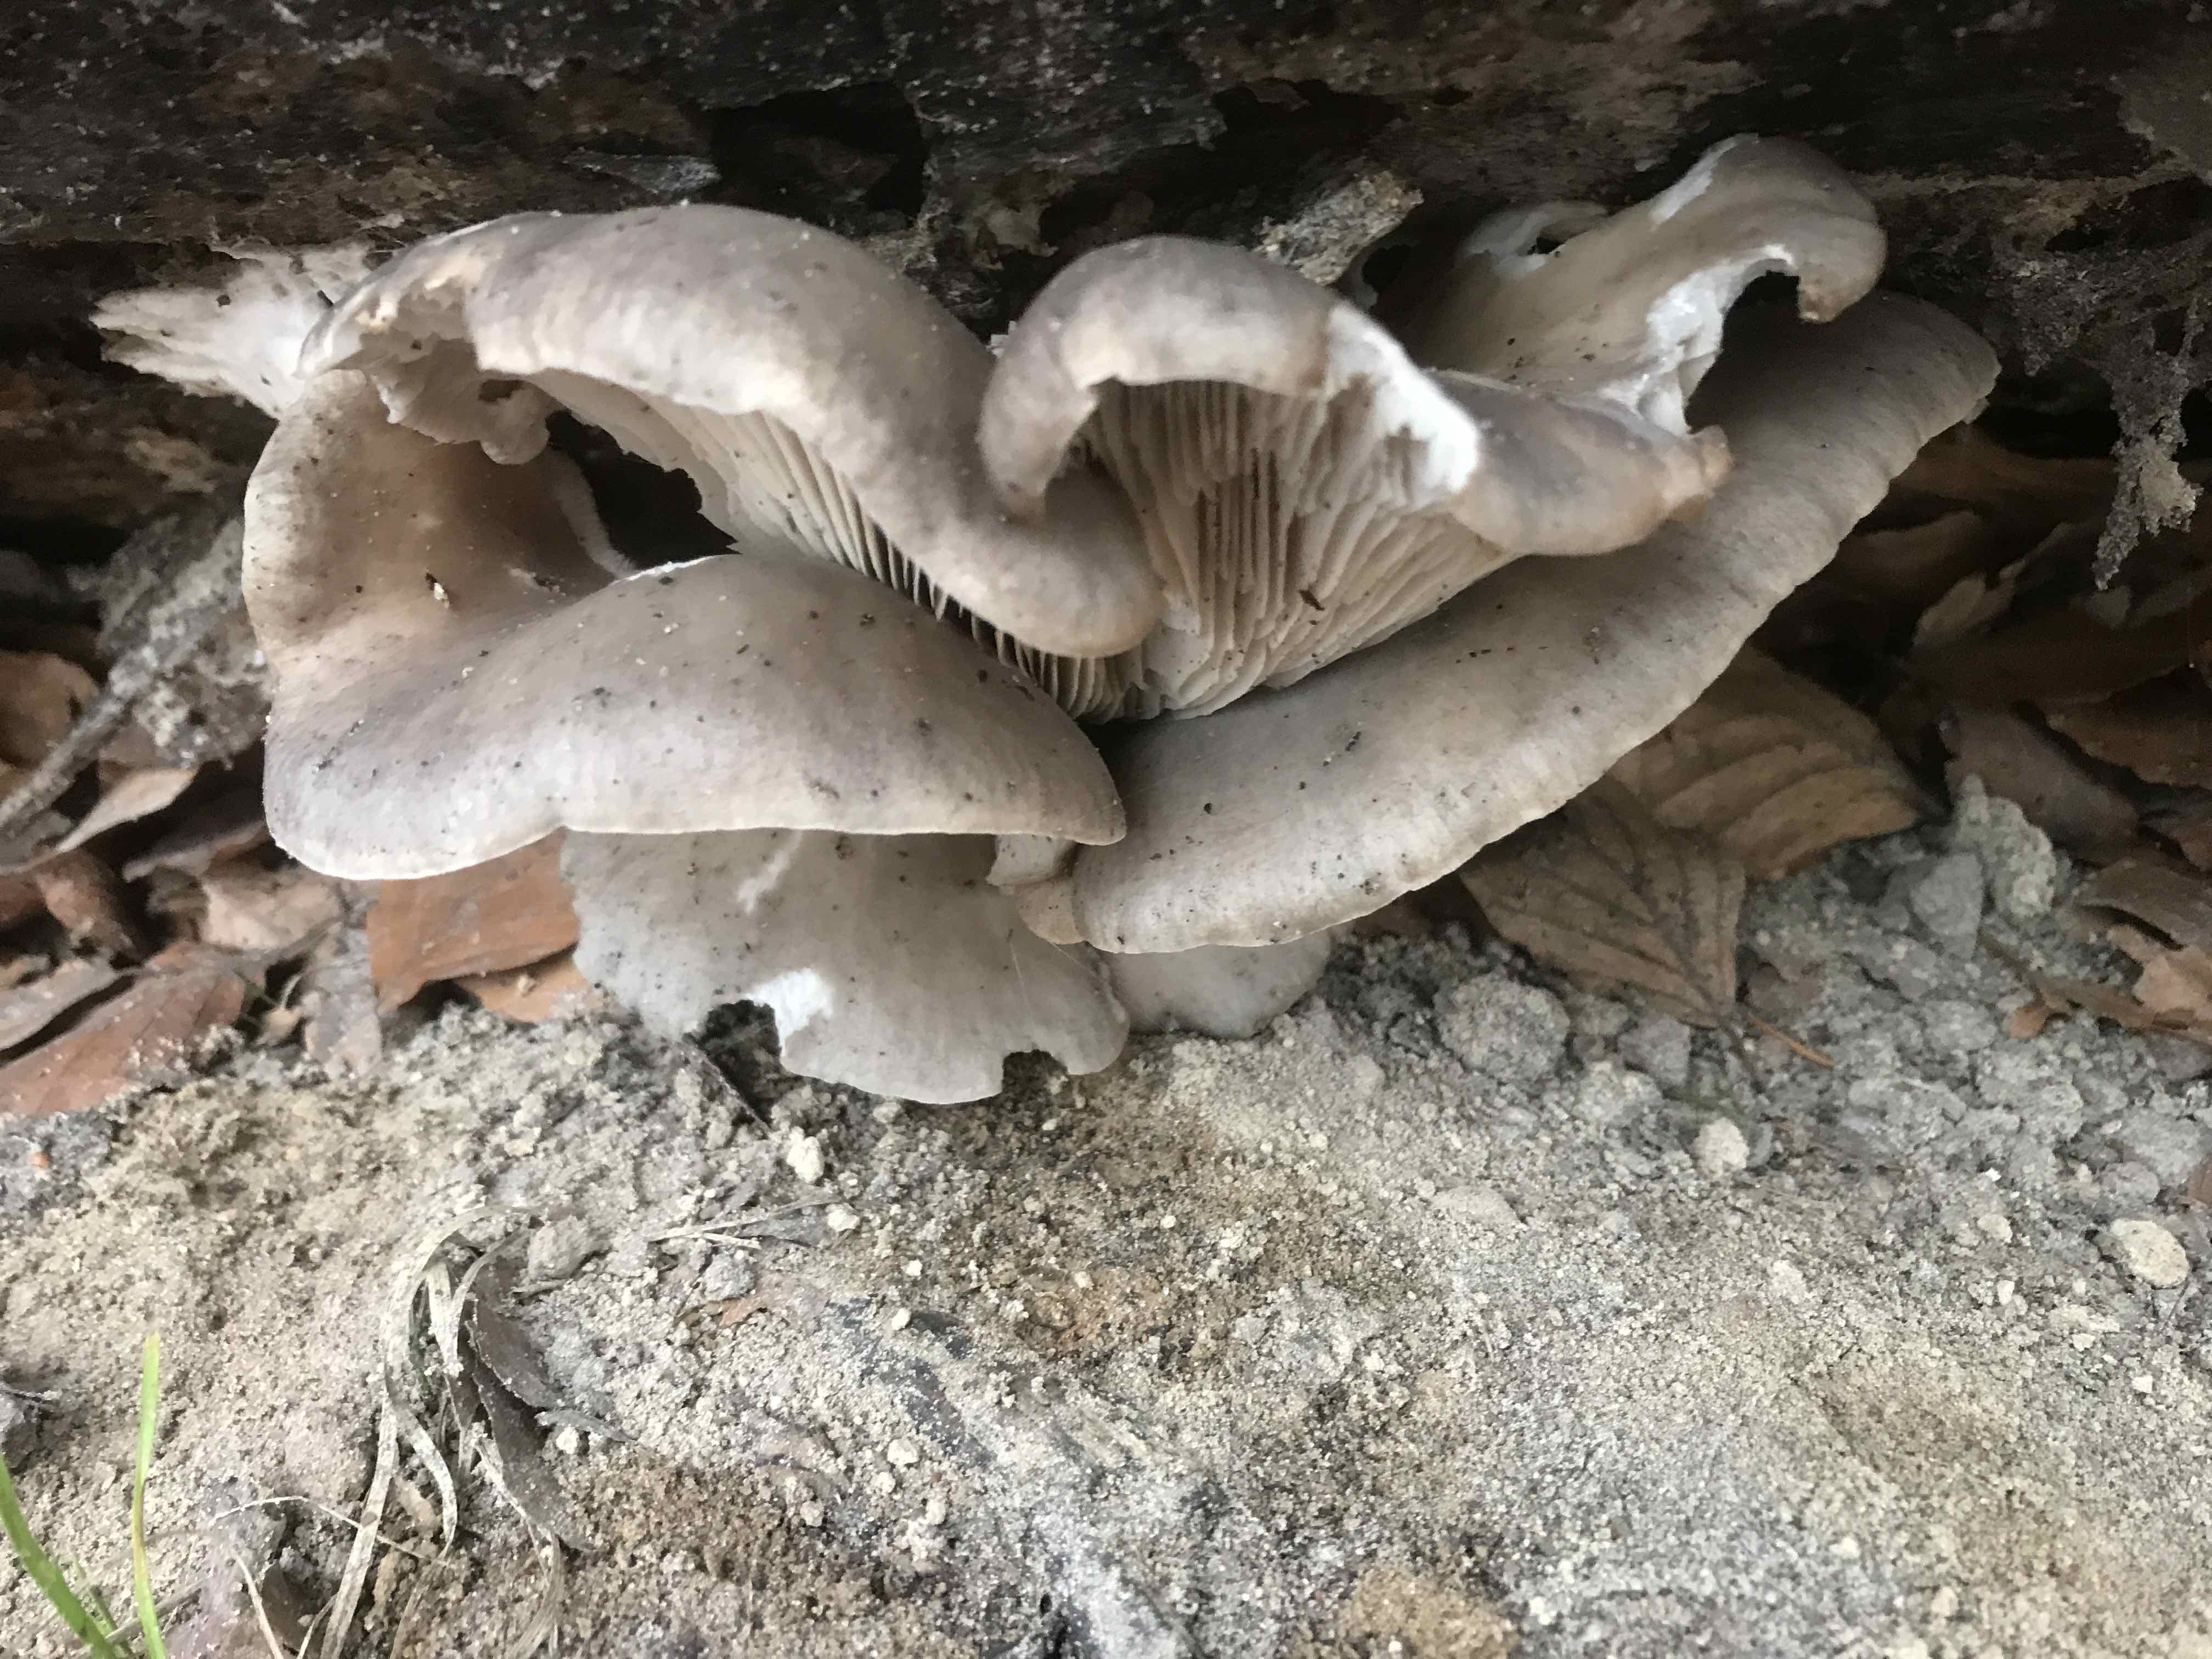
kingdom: Fungi
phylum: Basidiomycota
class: Agaricomycetes
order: Agaricales
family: Pleurotaceae
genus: Pleurotus
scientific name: Pleurotus ostreatus
